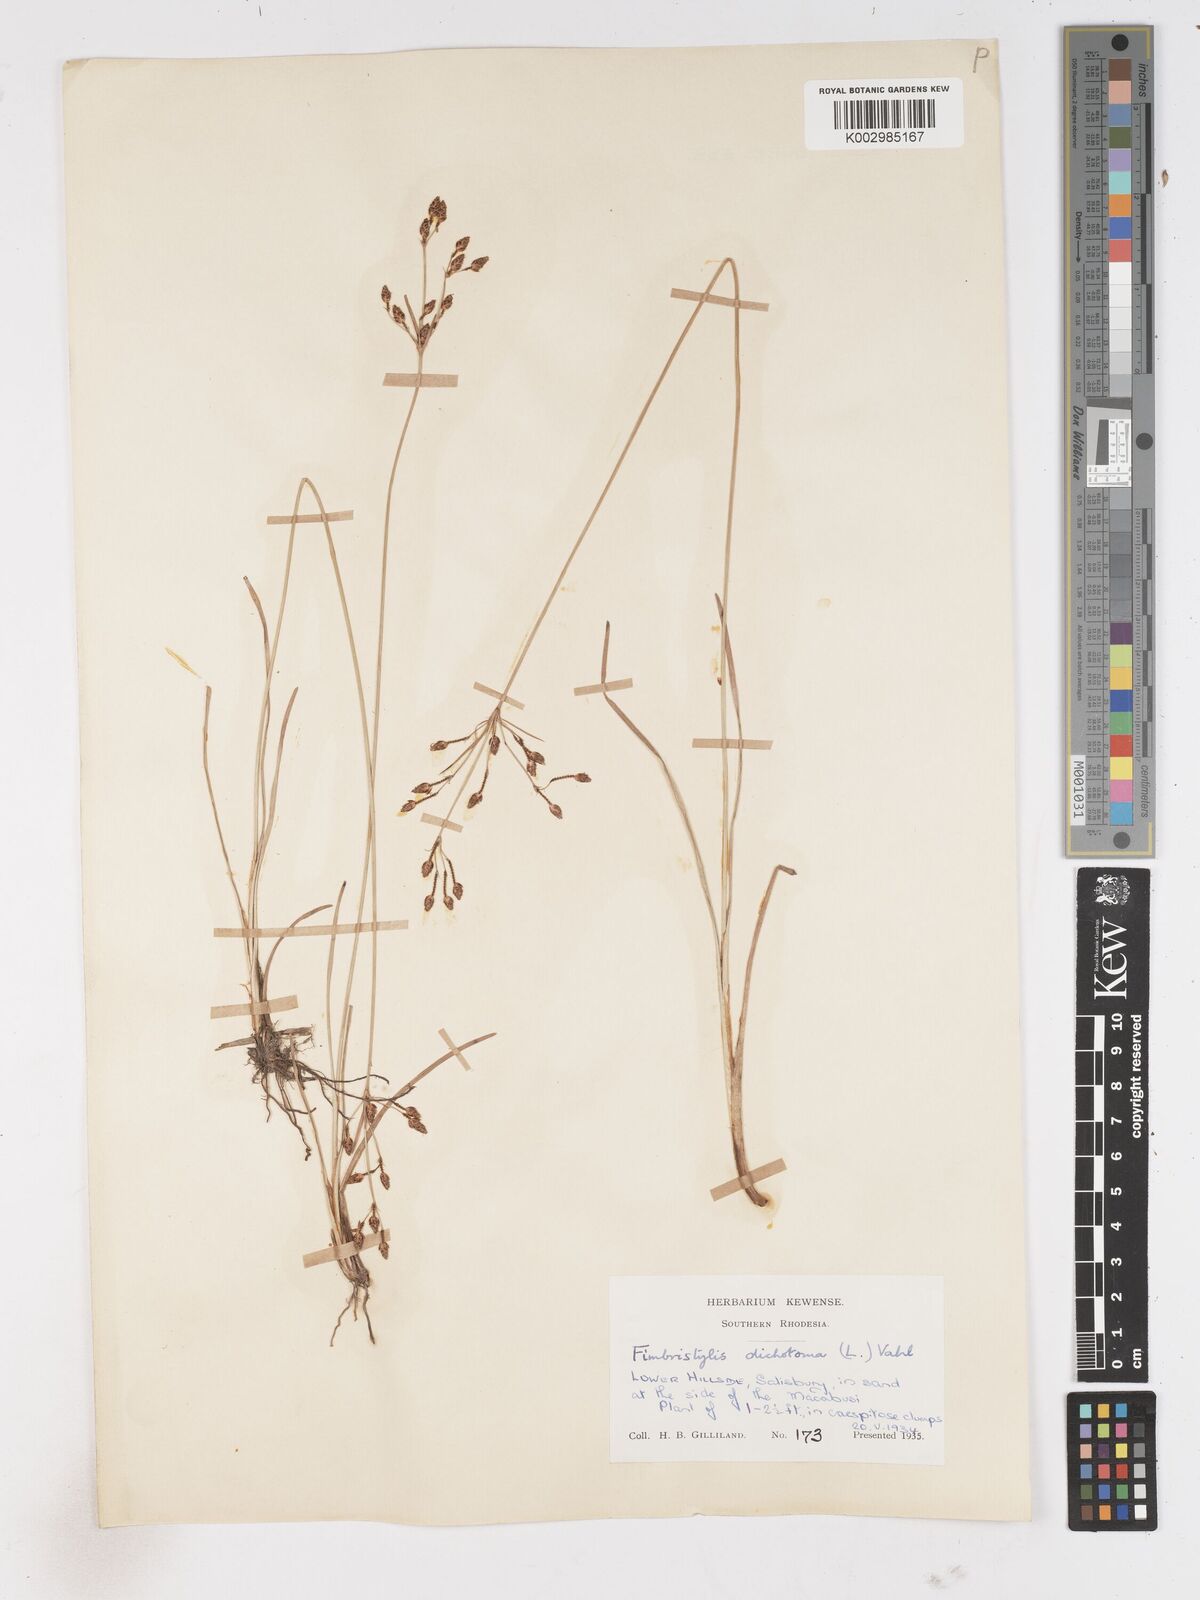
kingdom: Plantae
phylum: Tracheophyta
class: Liliopsida
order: Poales
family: Cyperaceae
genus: Fimbristylis
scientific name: Fimbristylis dichotoma
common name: Forked fimbry
